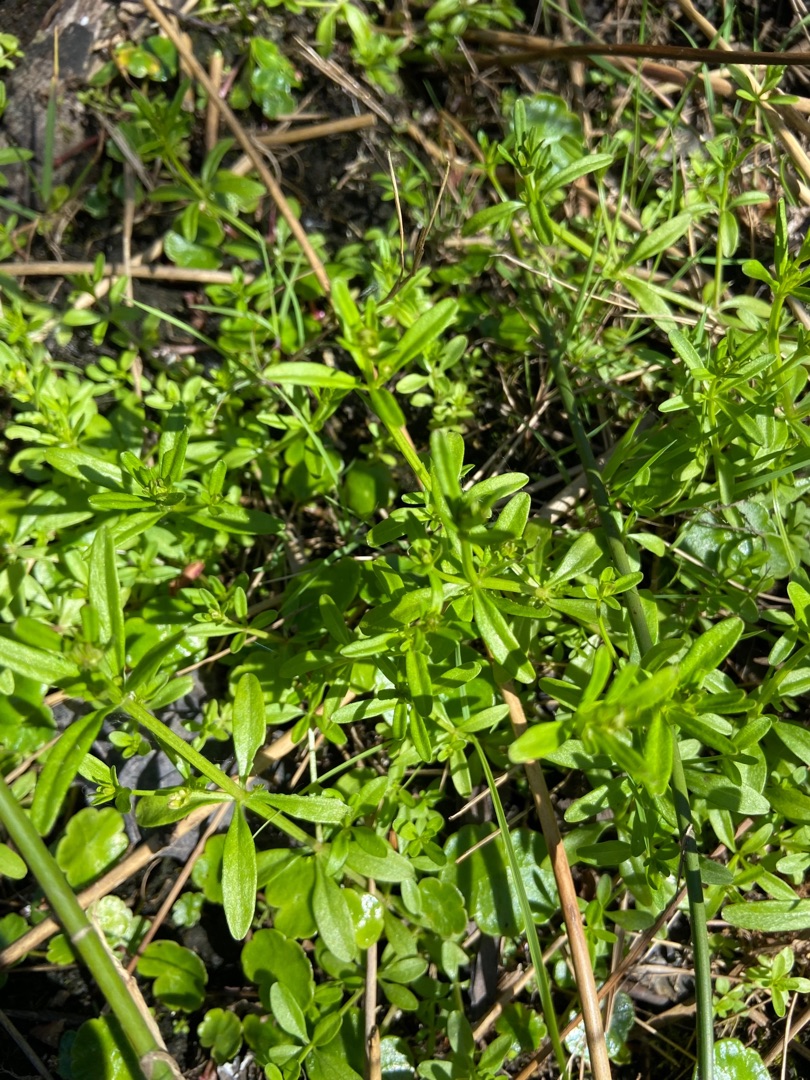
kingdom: Plantae
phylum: Tracheophyta
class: Magnoliopsida
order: Gentianales
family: Rubiaceae
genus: Galium
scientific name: Galium aparine
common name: Burre-snerre
